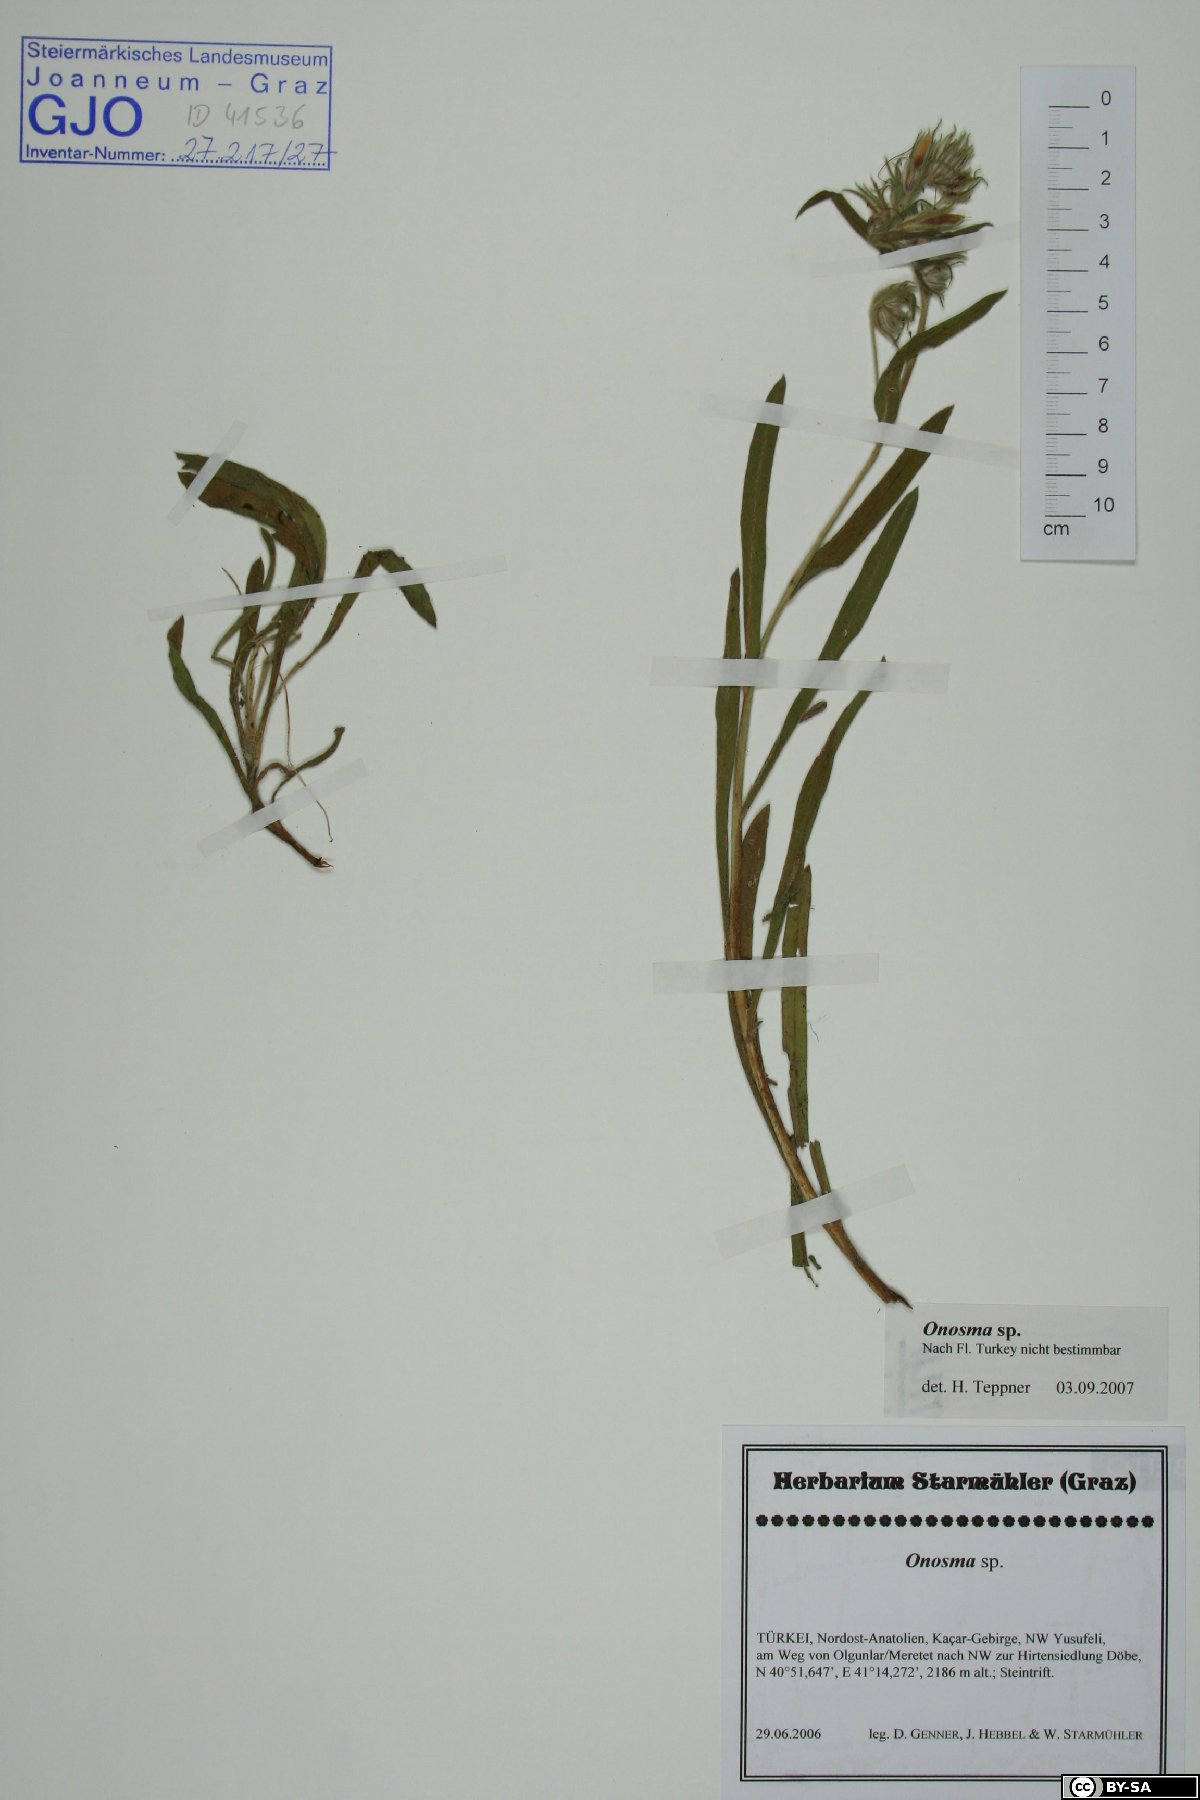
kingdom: Plantae
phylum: Tracheophyta
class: Magnoliopsida
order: Boraginales
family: Boraginaceae
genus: Onosma
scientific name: Onosma
